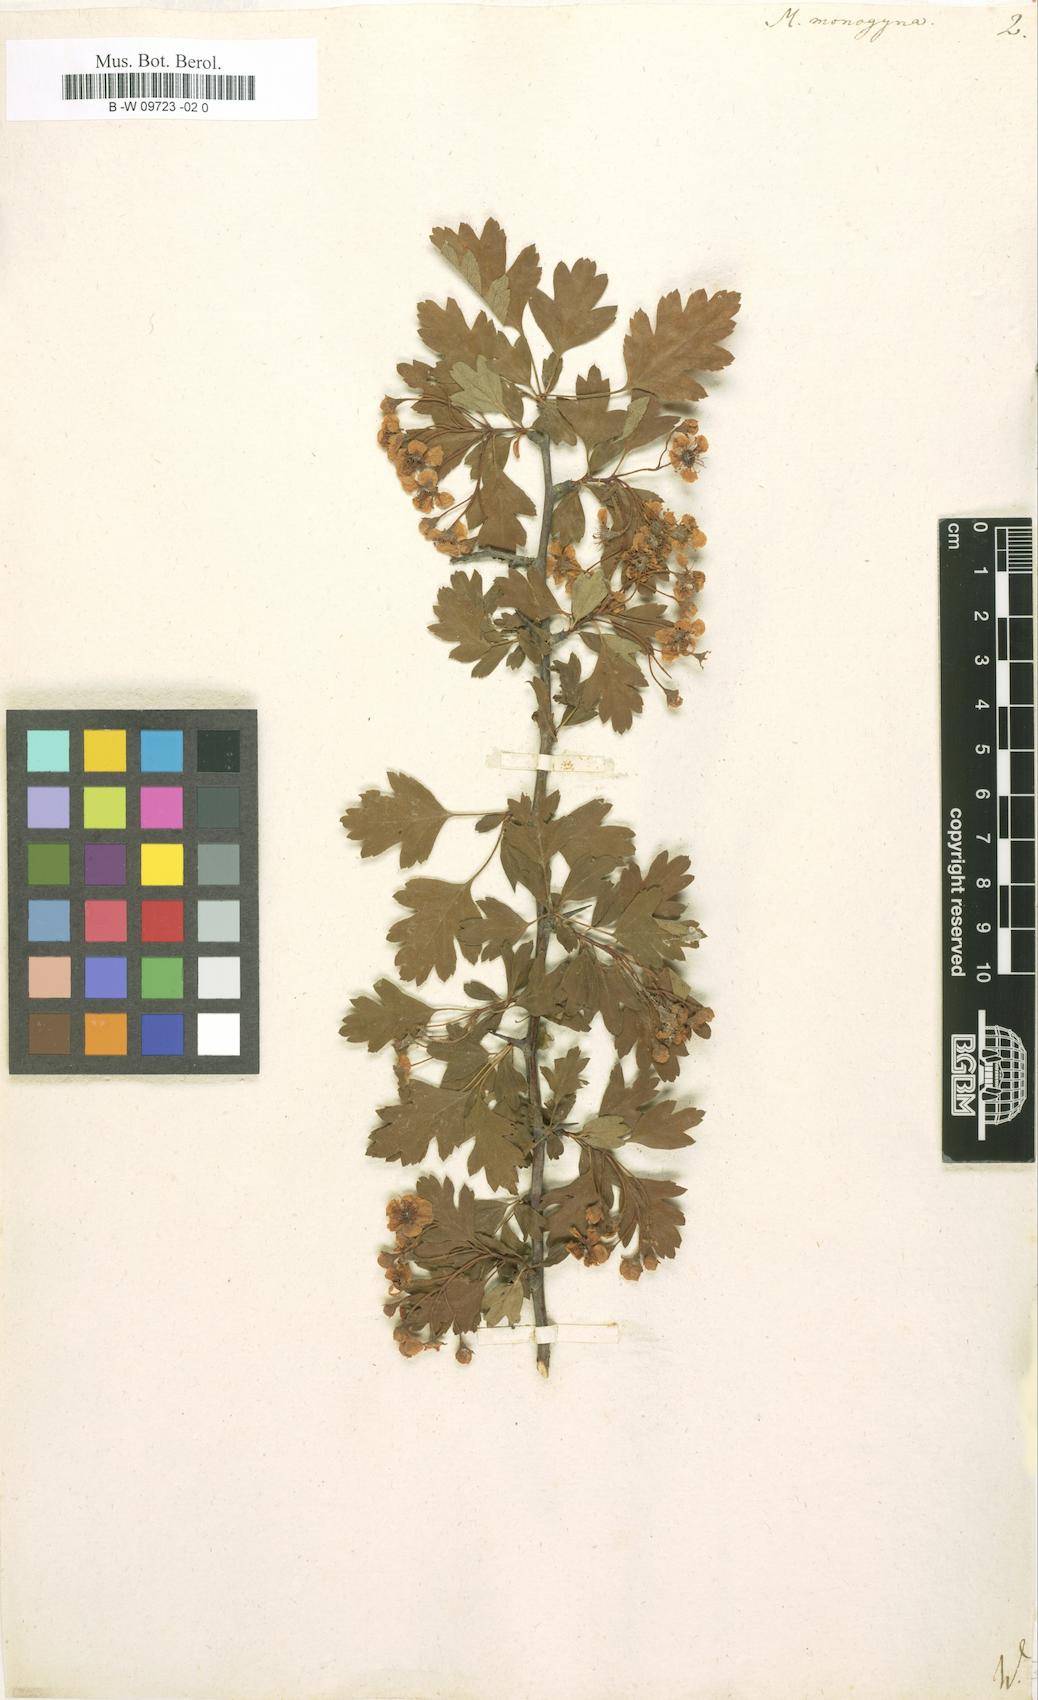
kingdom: Plantae
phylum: Tracheophyta
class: Magnoliopsida
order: Rosales
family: Rosaceae
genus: Crataegus
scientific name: Crataegus monogyna
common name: Hawthorn
